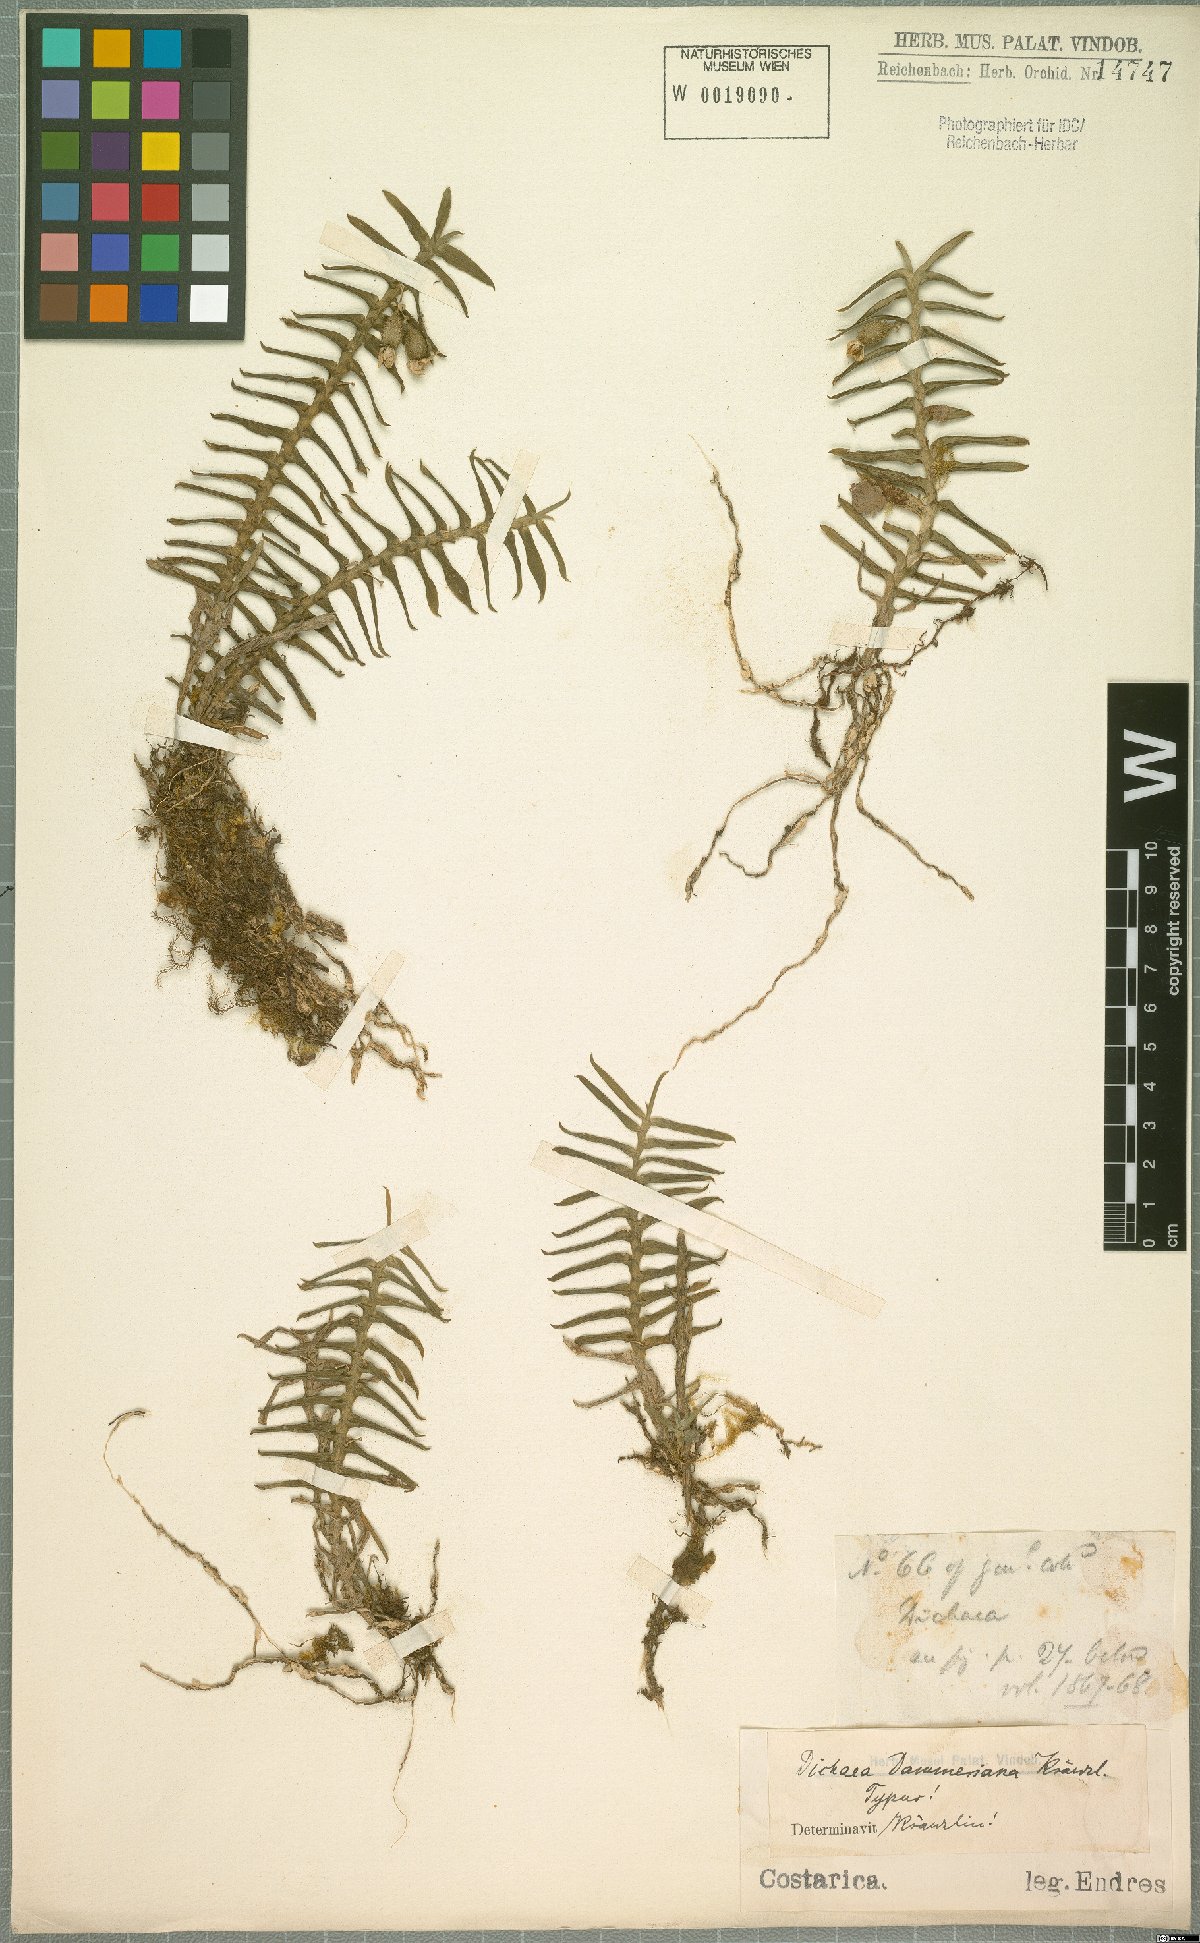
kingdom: Plantae
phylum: Tracheophyta
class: Liliopsida
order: Asparagales
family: Orchidaceae
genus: Dichaea
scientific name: Dichaea dammeriana
